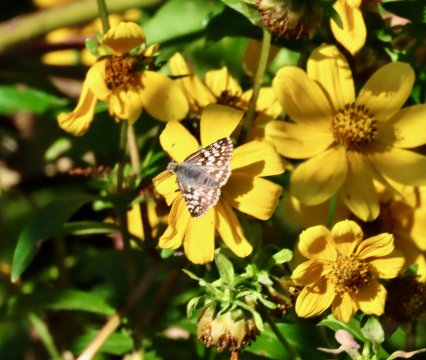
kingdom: Animalia
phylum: Arthropoda
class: Insecta
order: Lepidoptera
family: Hesperiidae
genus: Pyrgus
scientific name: Pyrgus communis
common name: Common Checkered-Skipper
